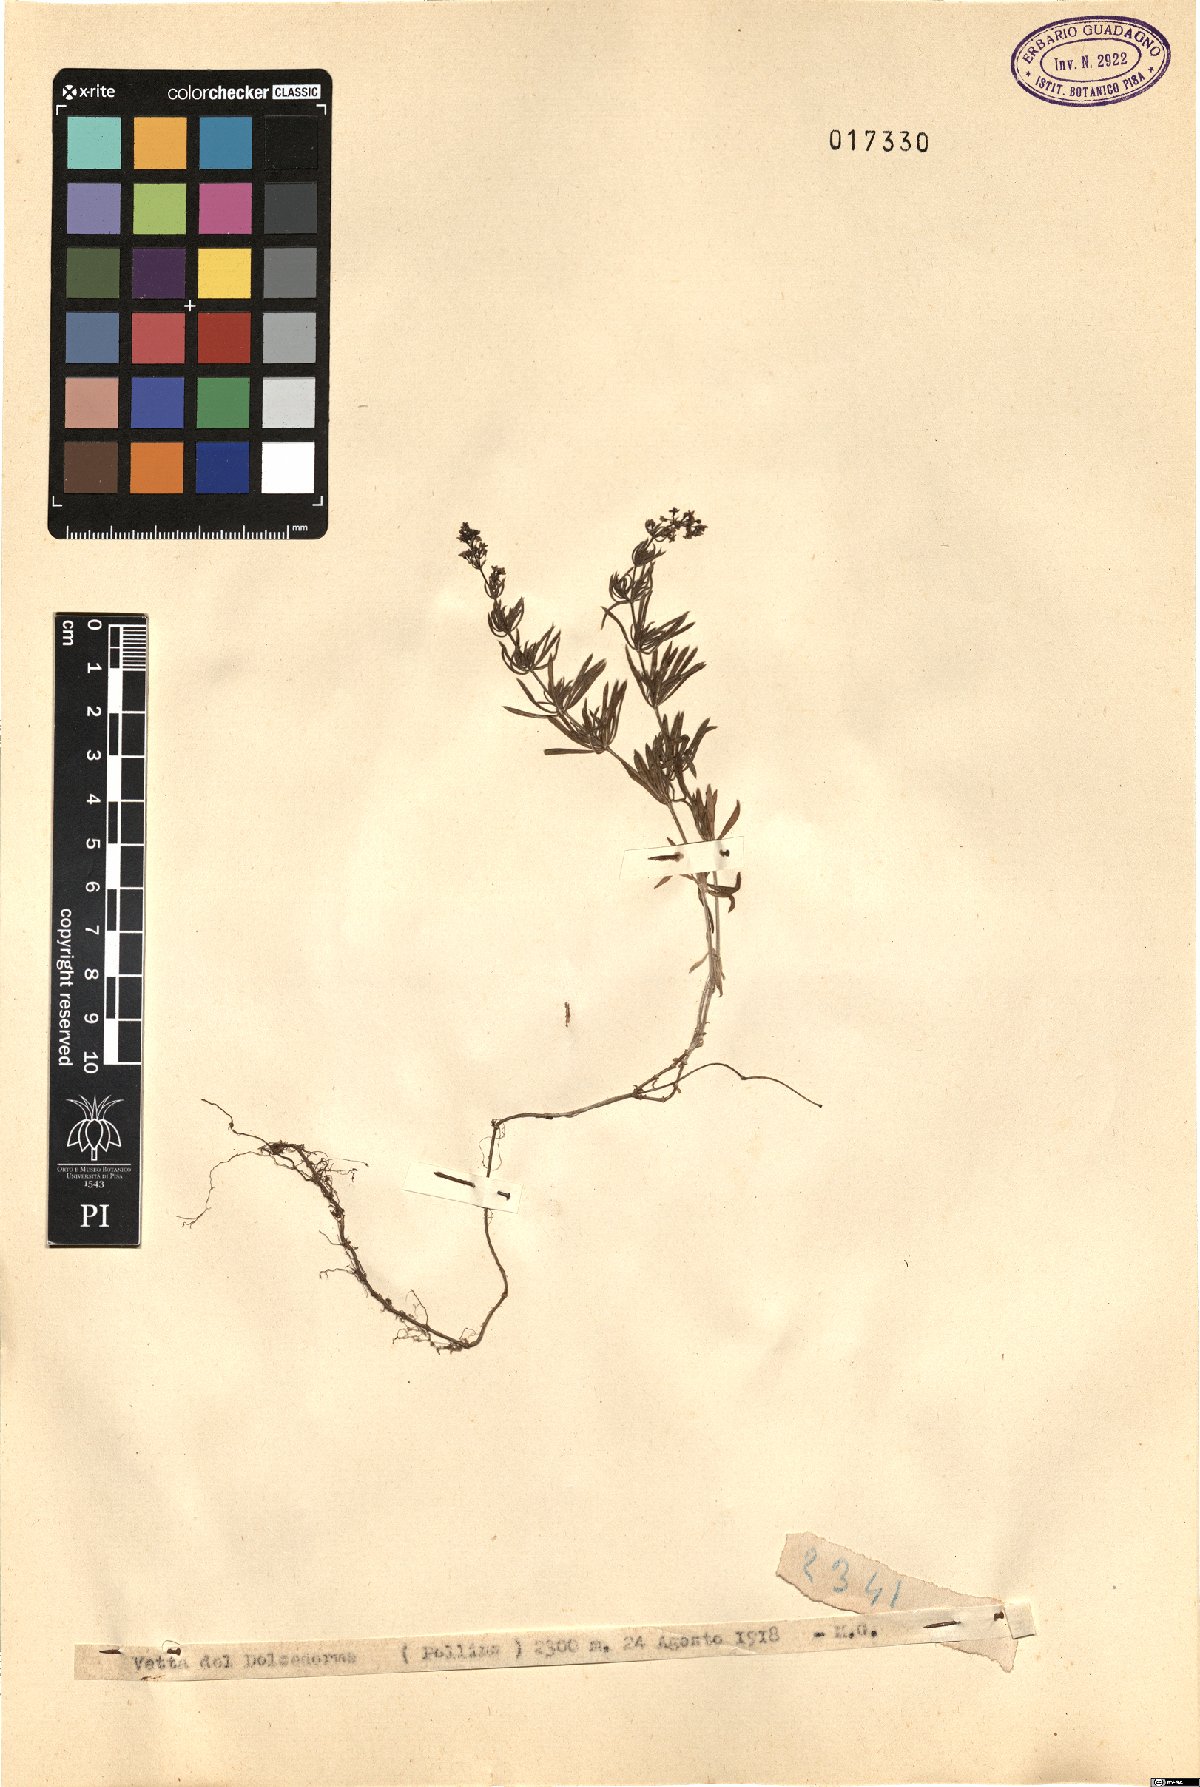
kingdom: Plantae
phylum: Tracheophyta
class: Magnoliopsida
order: Gentianales
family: Rubiaceae
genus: Galium
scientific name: Galium
